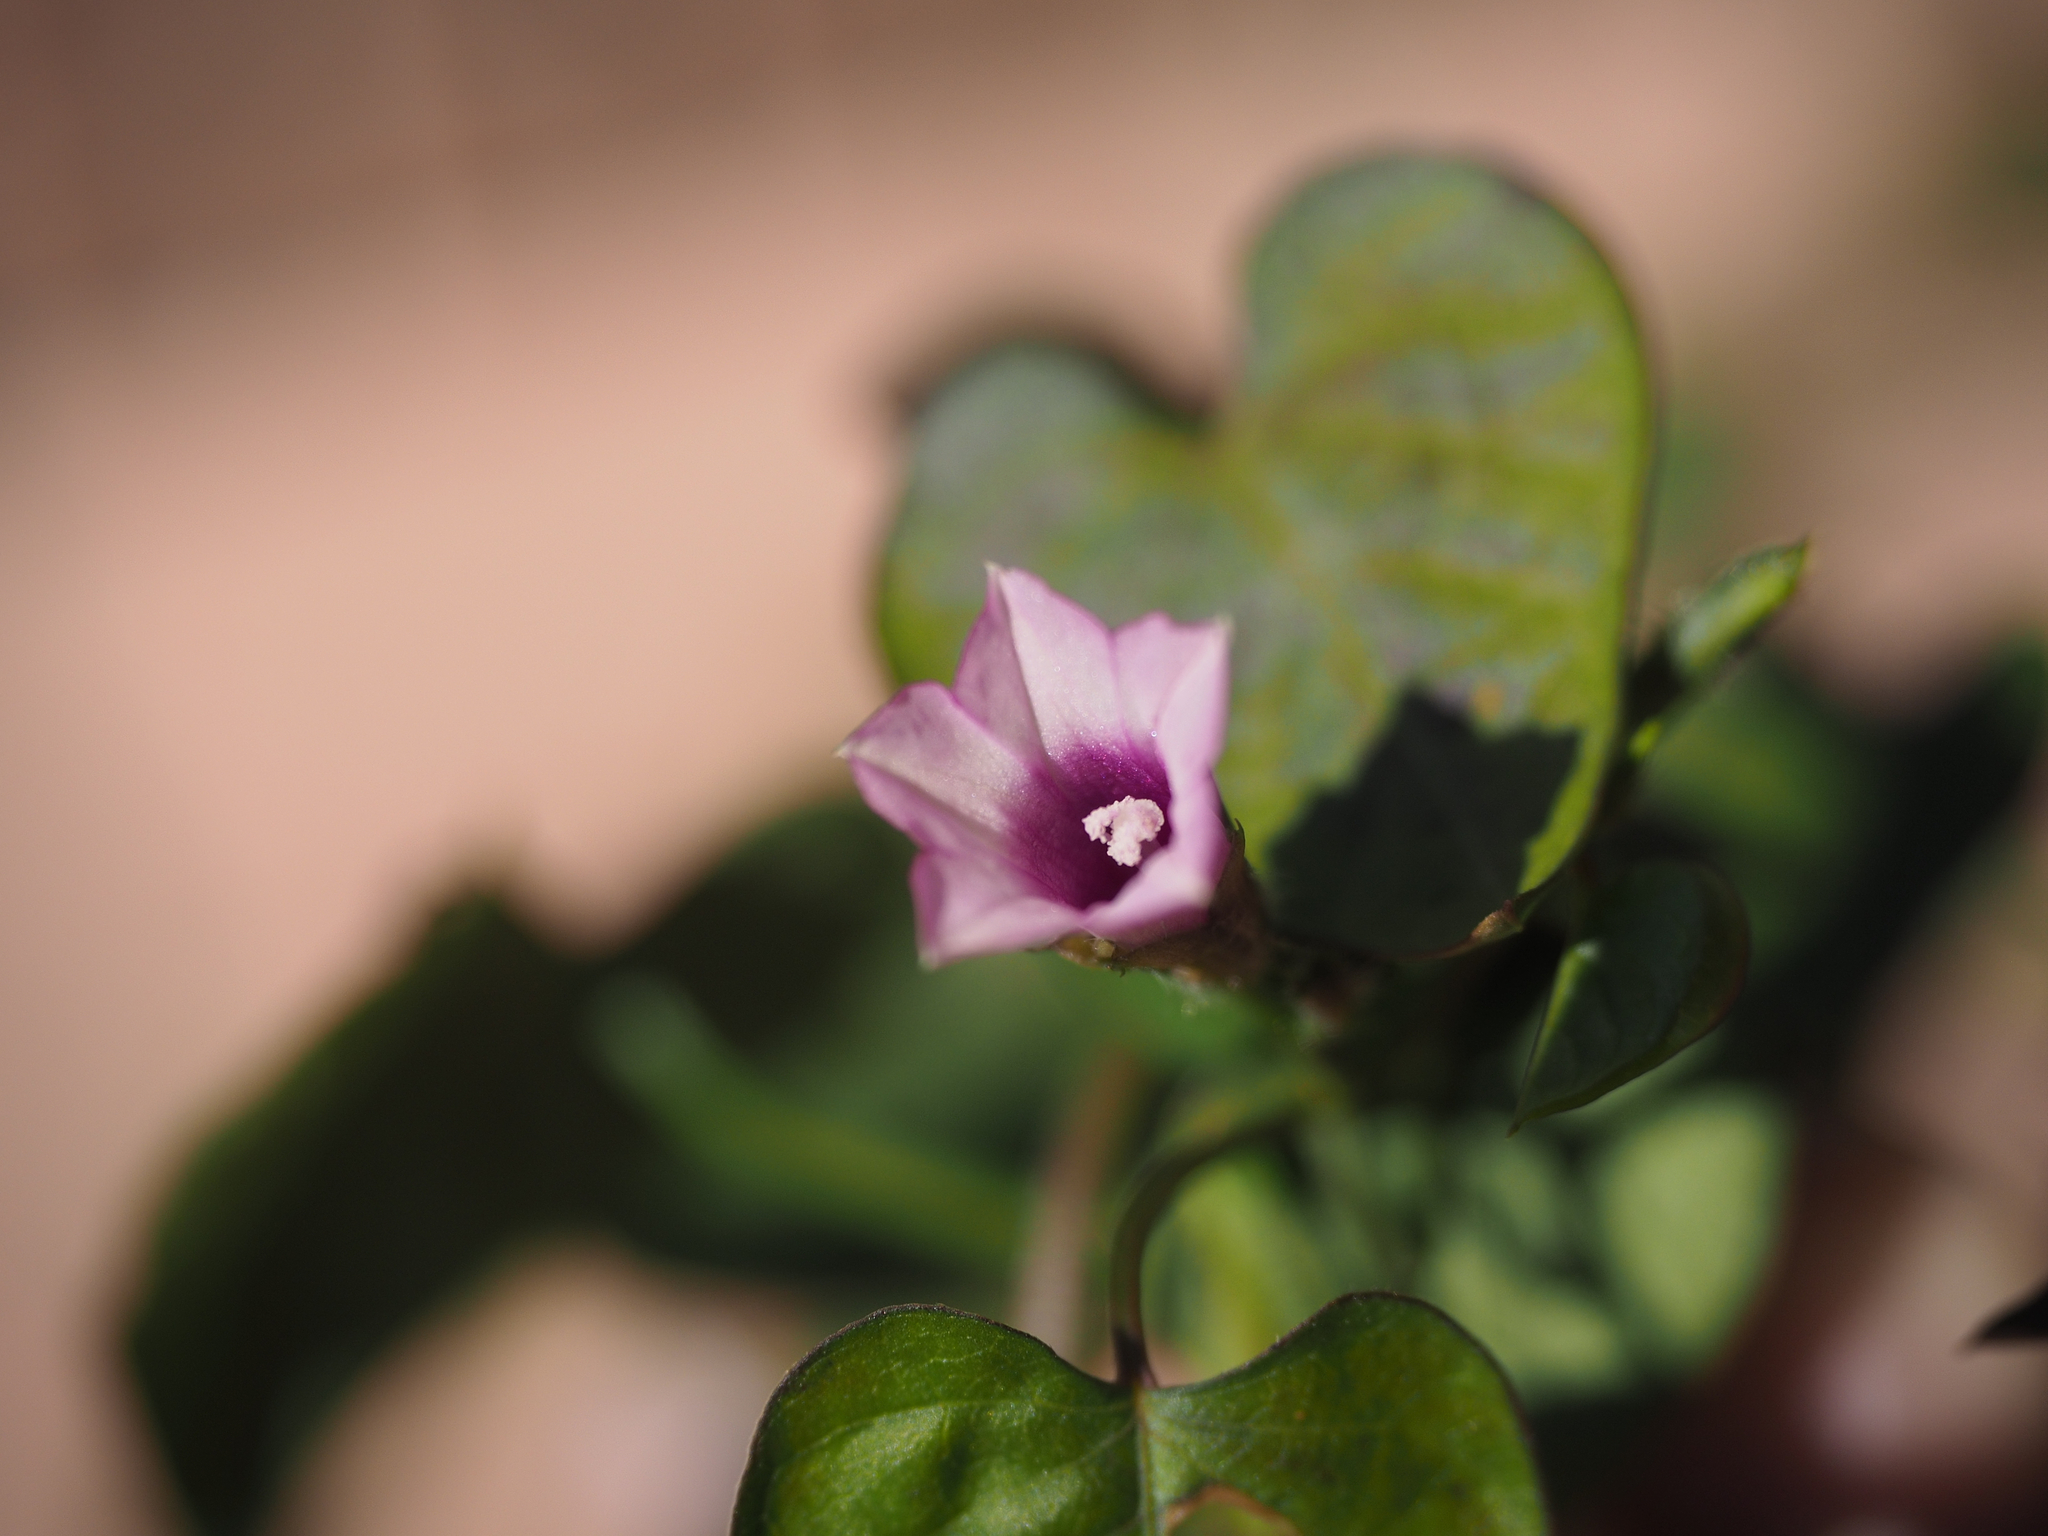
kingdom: Plantae
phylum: Tracheophyta
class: Magnoliopsida
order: Solanales
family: Convolvulaceae
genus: Ipomoea
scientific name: Ipomoea triloba
